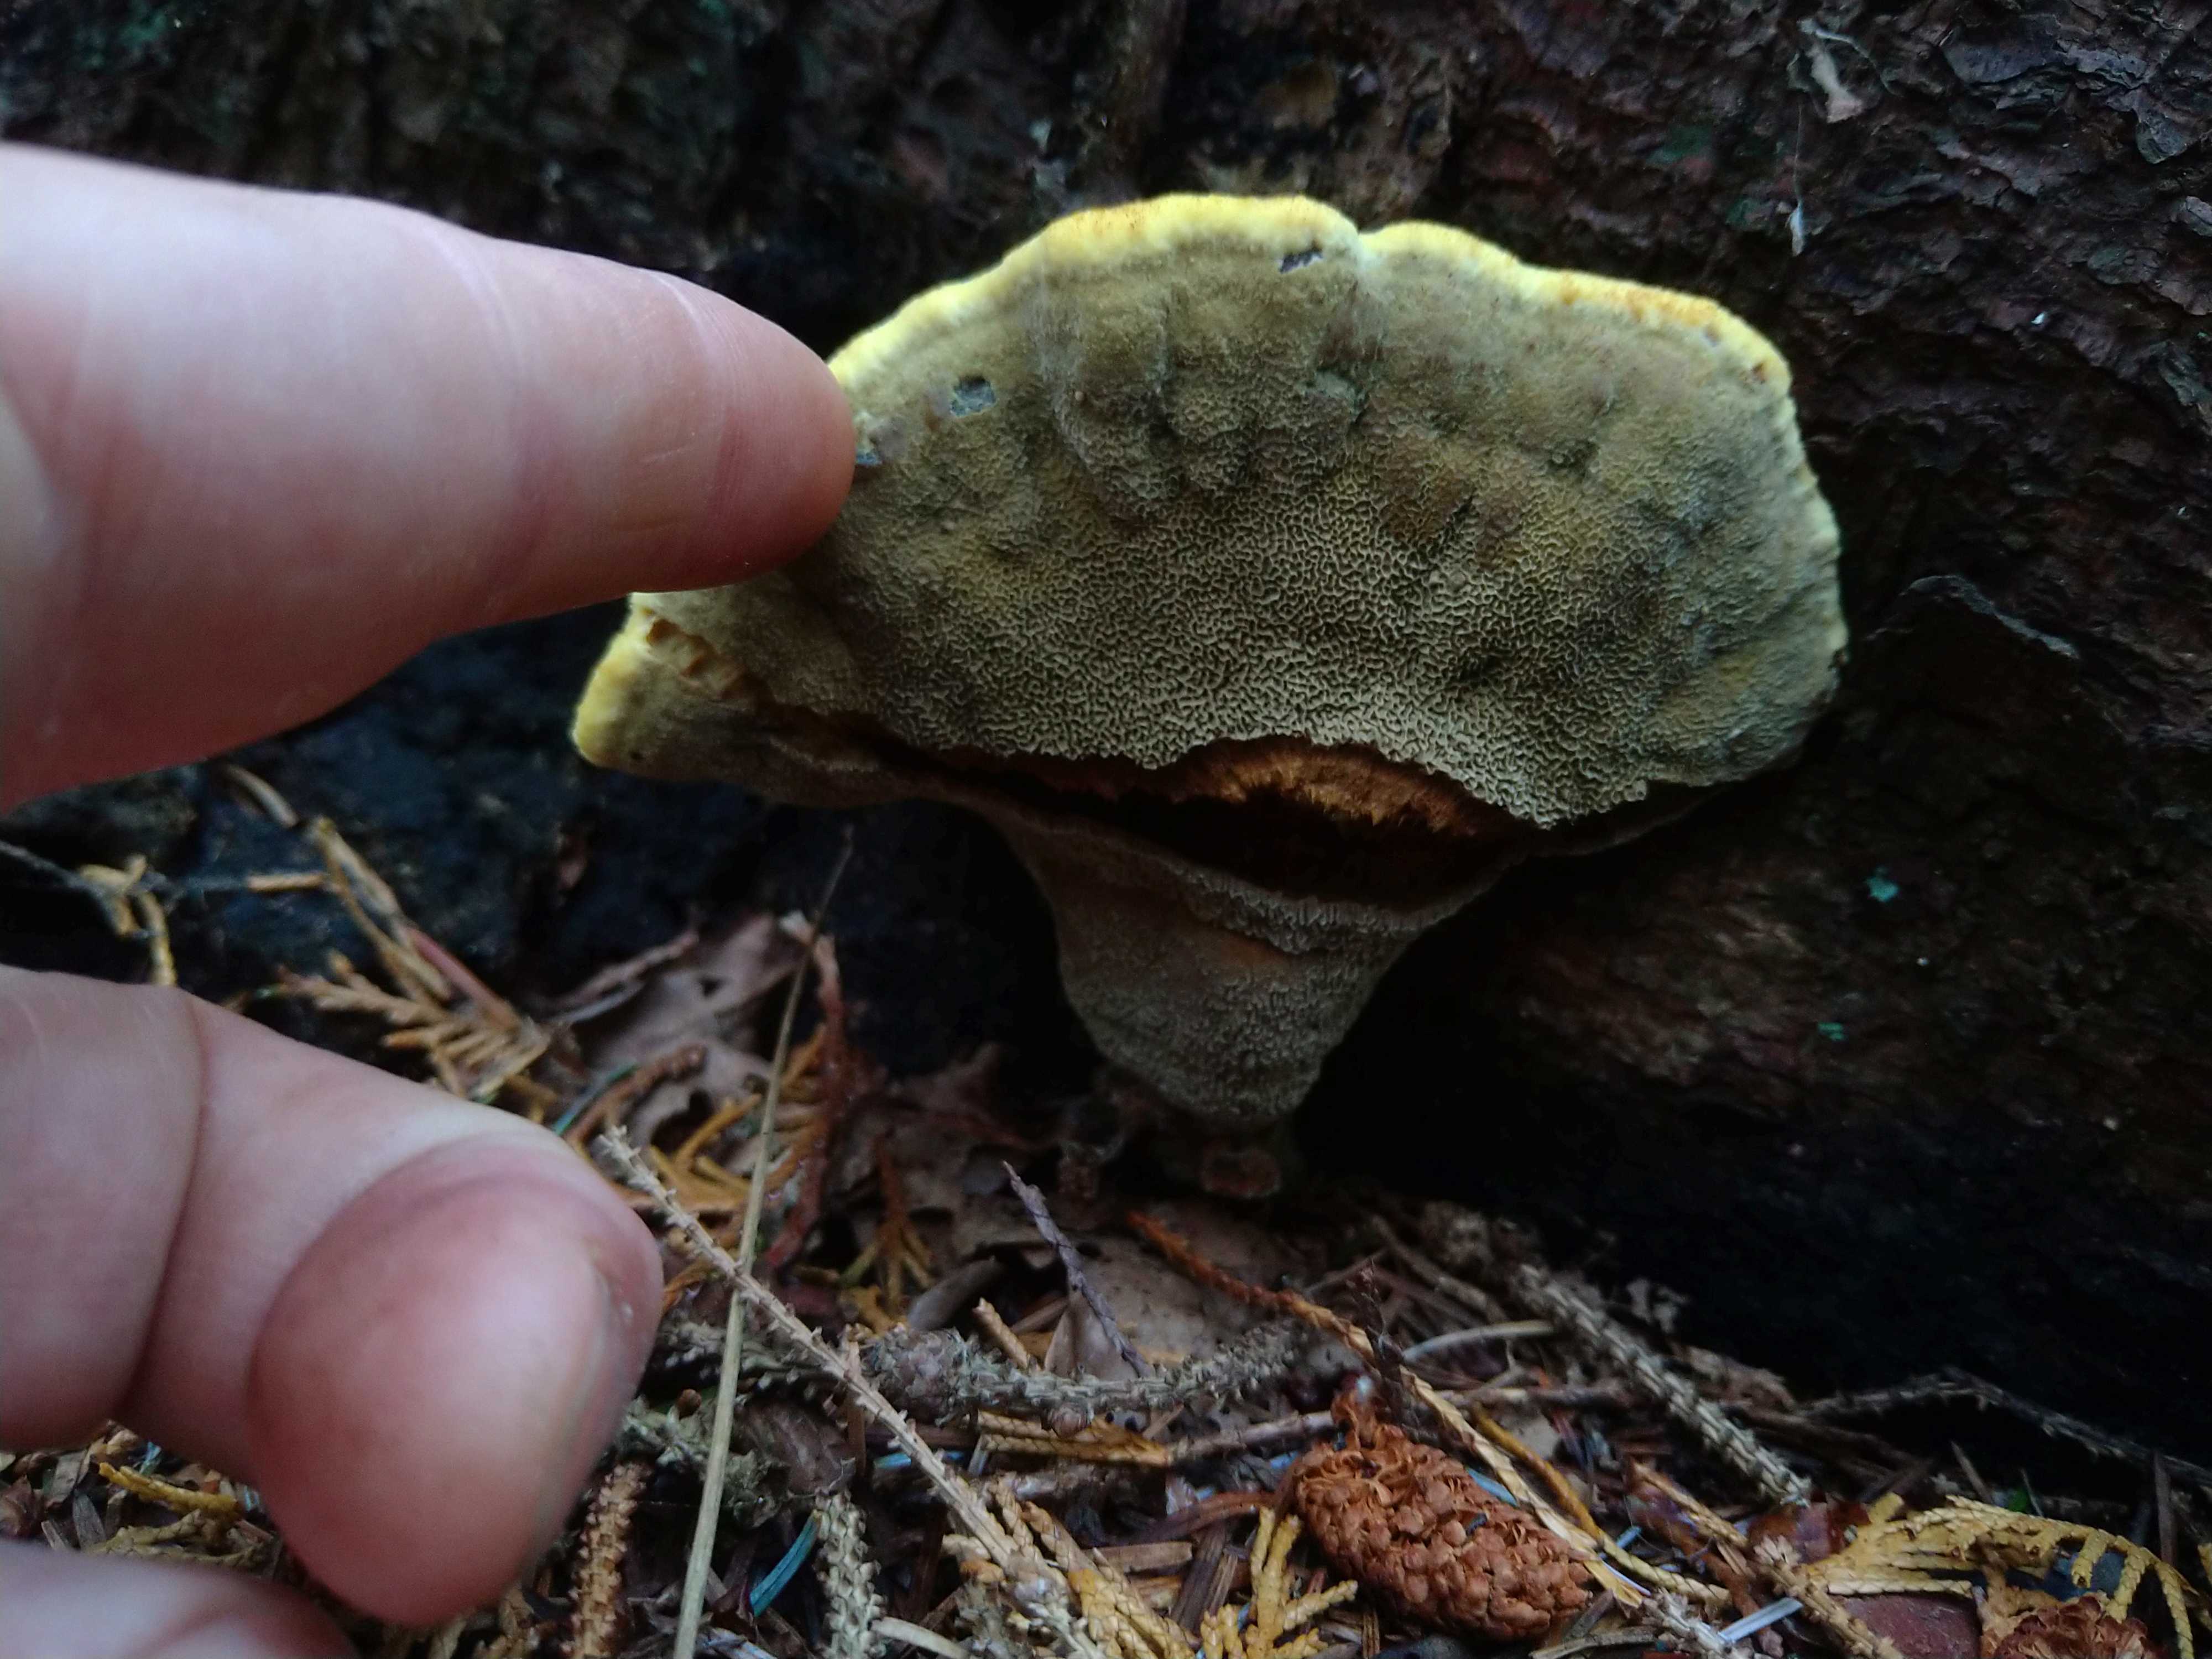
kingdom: Fungi
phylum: Basidiomycota
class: Agaricomycetes
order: Polyporales
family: Laetiporaceae
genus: Phaeolus
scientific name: Phaeolus schweinitzii
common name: brunporesvamp
